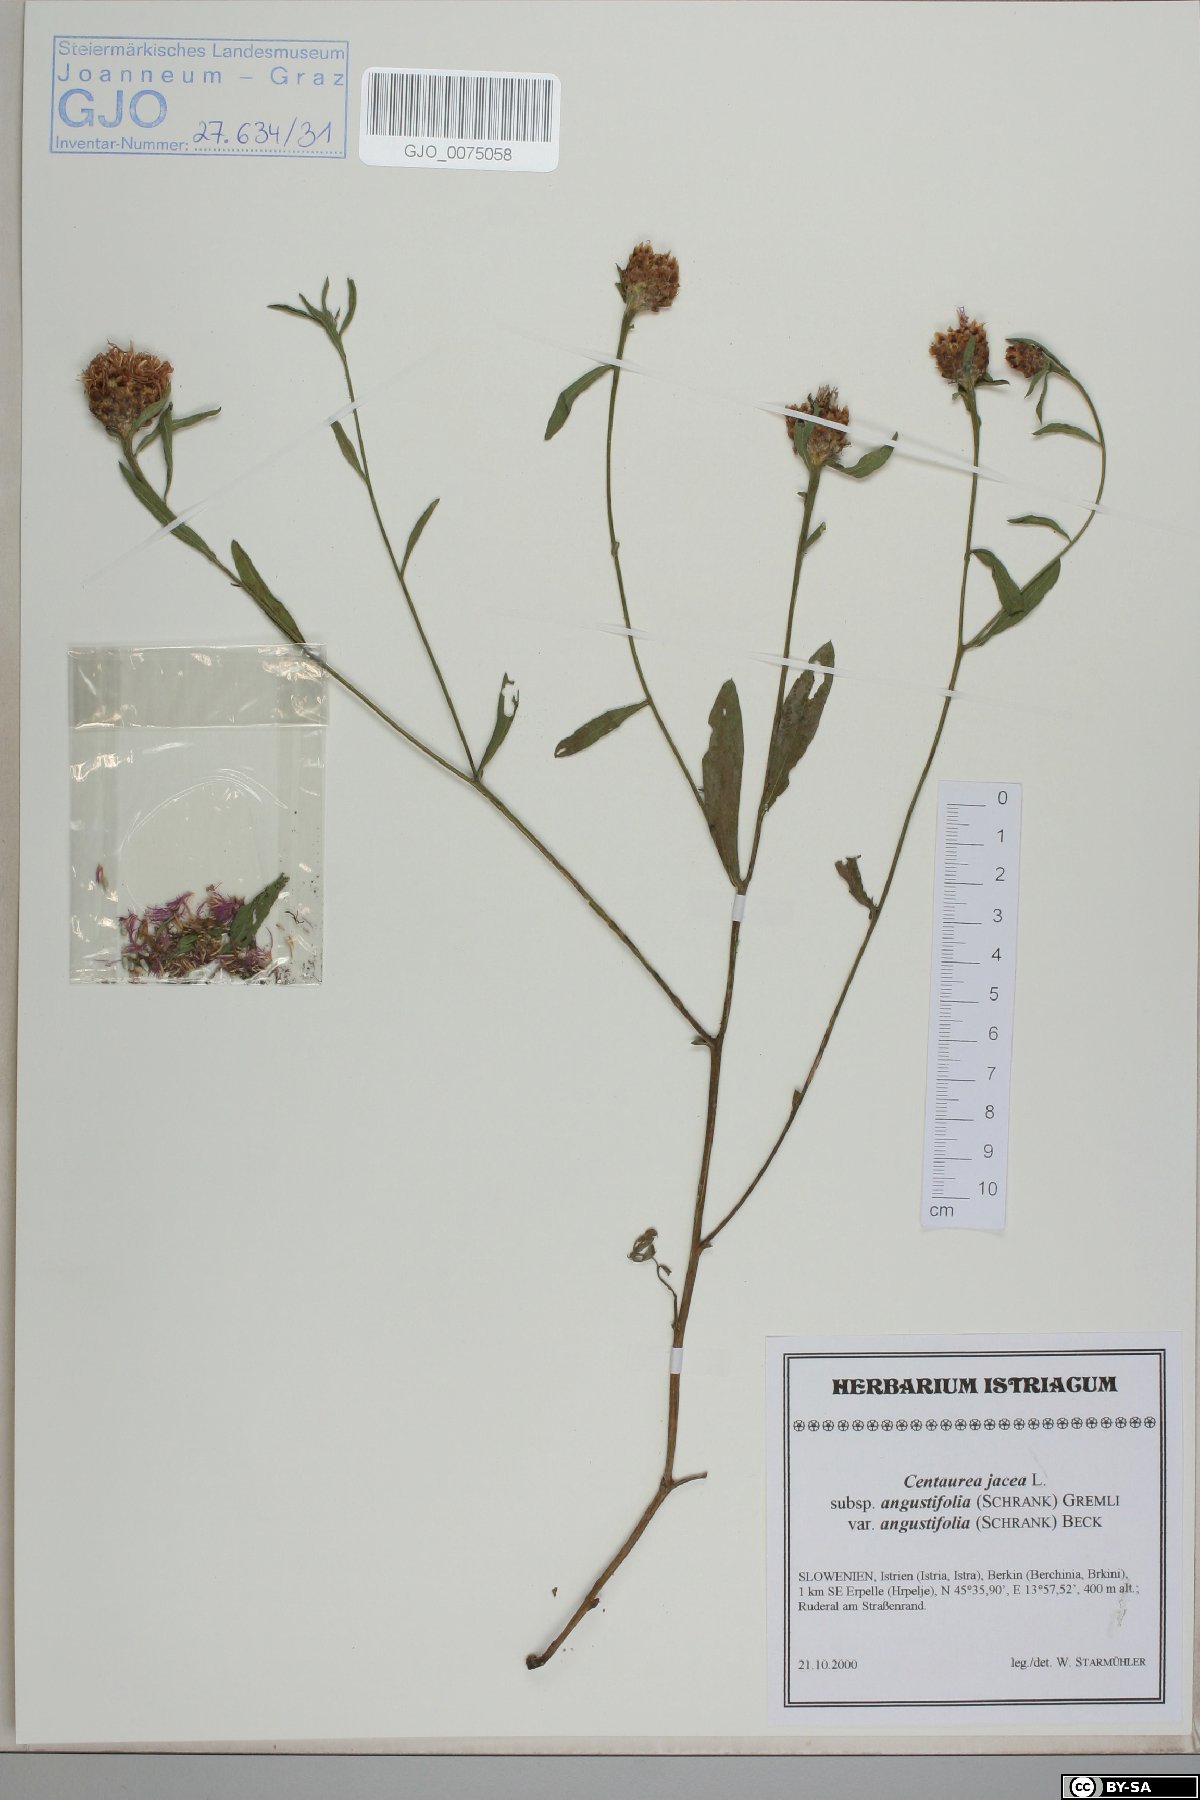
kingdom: Plantae
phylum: Tracheophyta
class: Magnoliopsida
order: Asterales
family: Asteraceae
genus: Centaurea
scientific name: Centaurea pannonica
